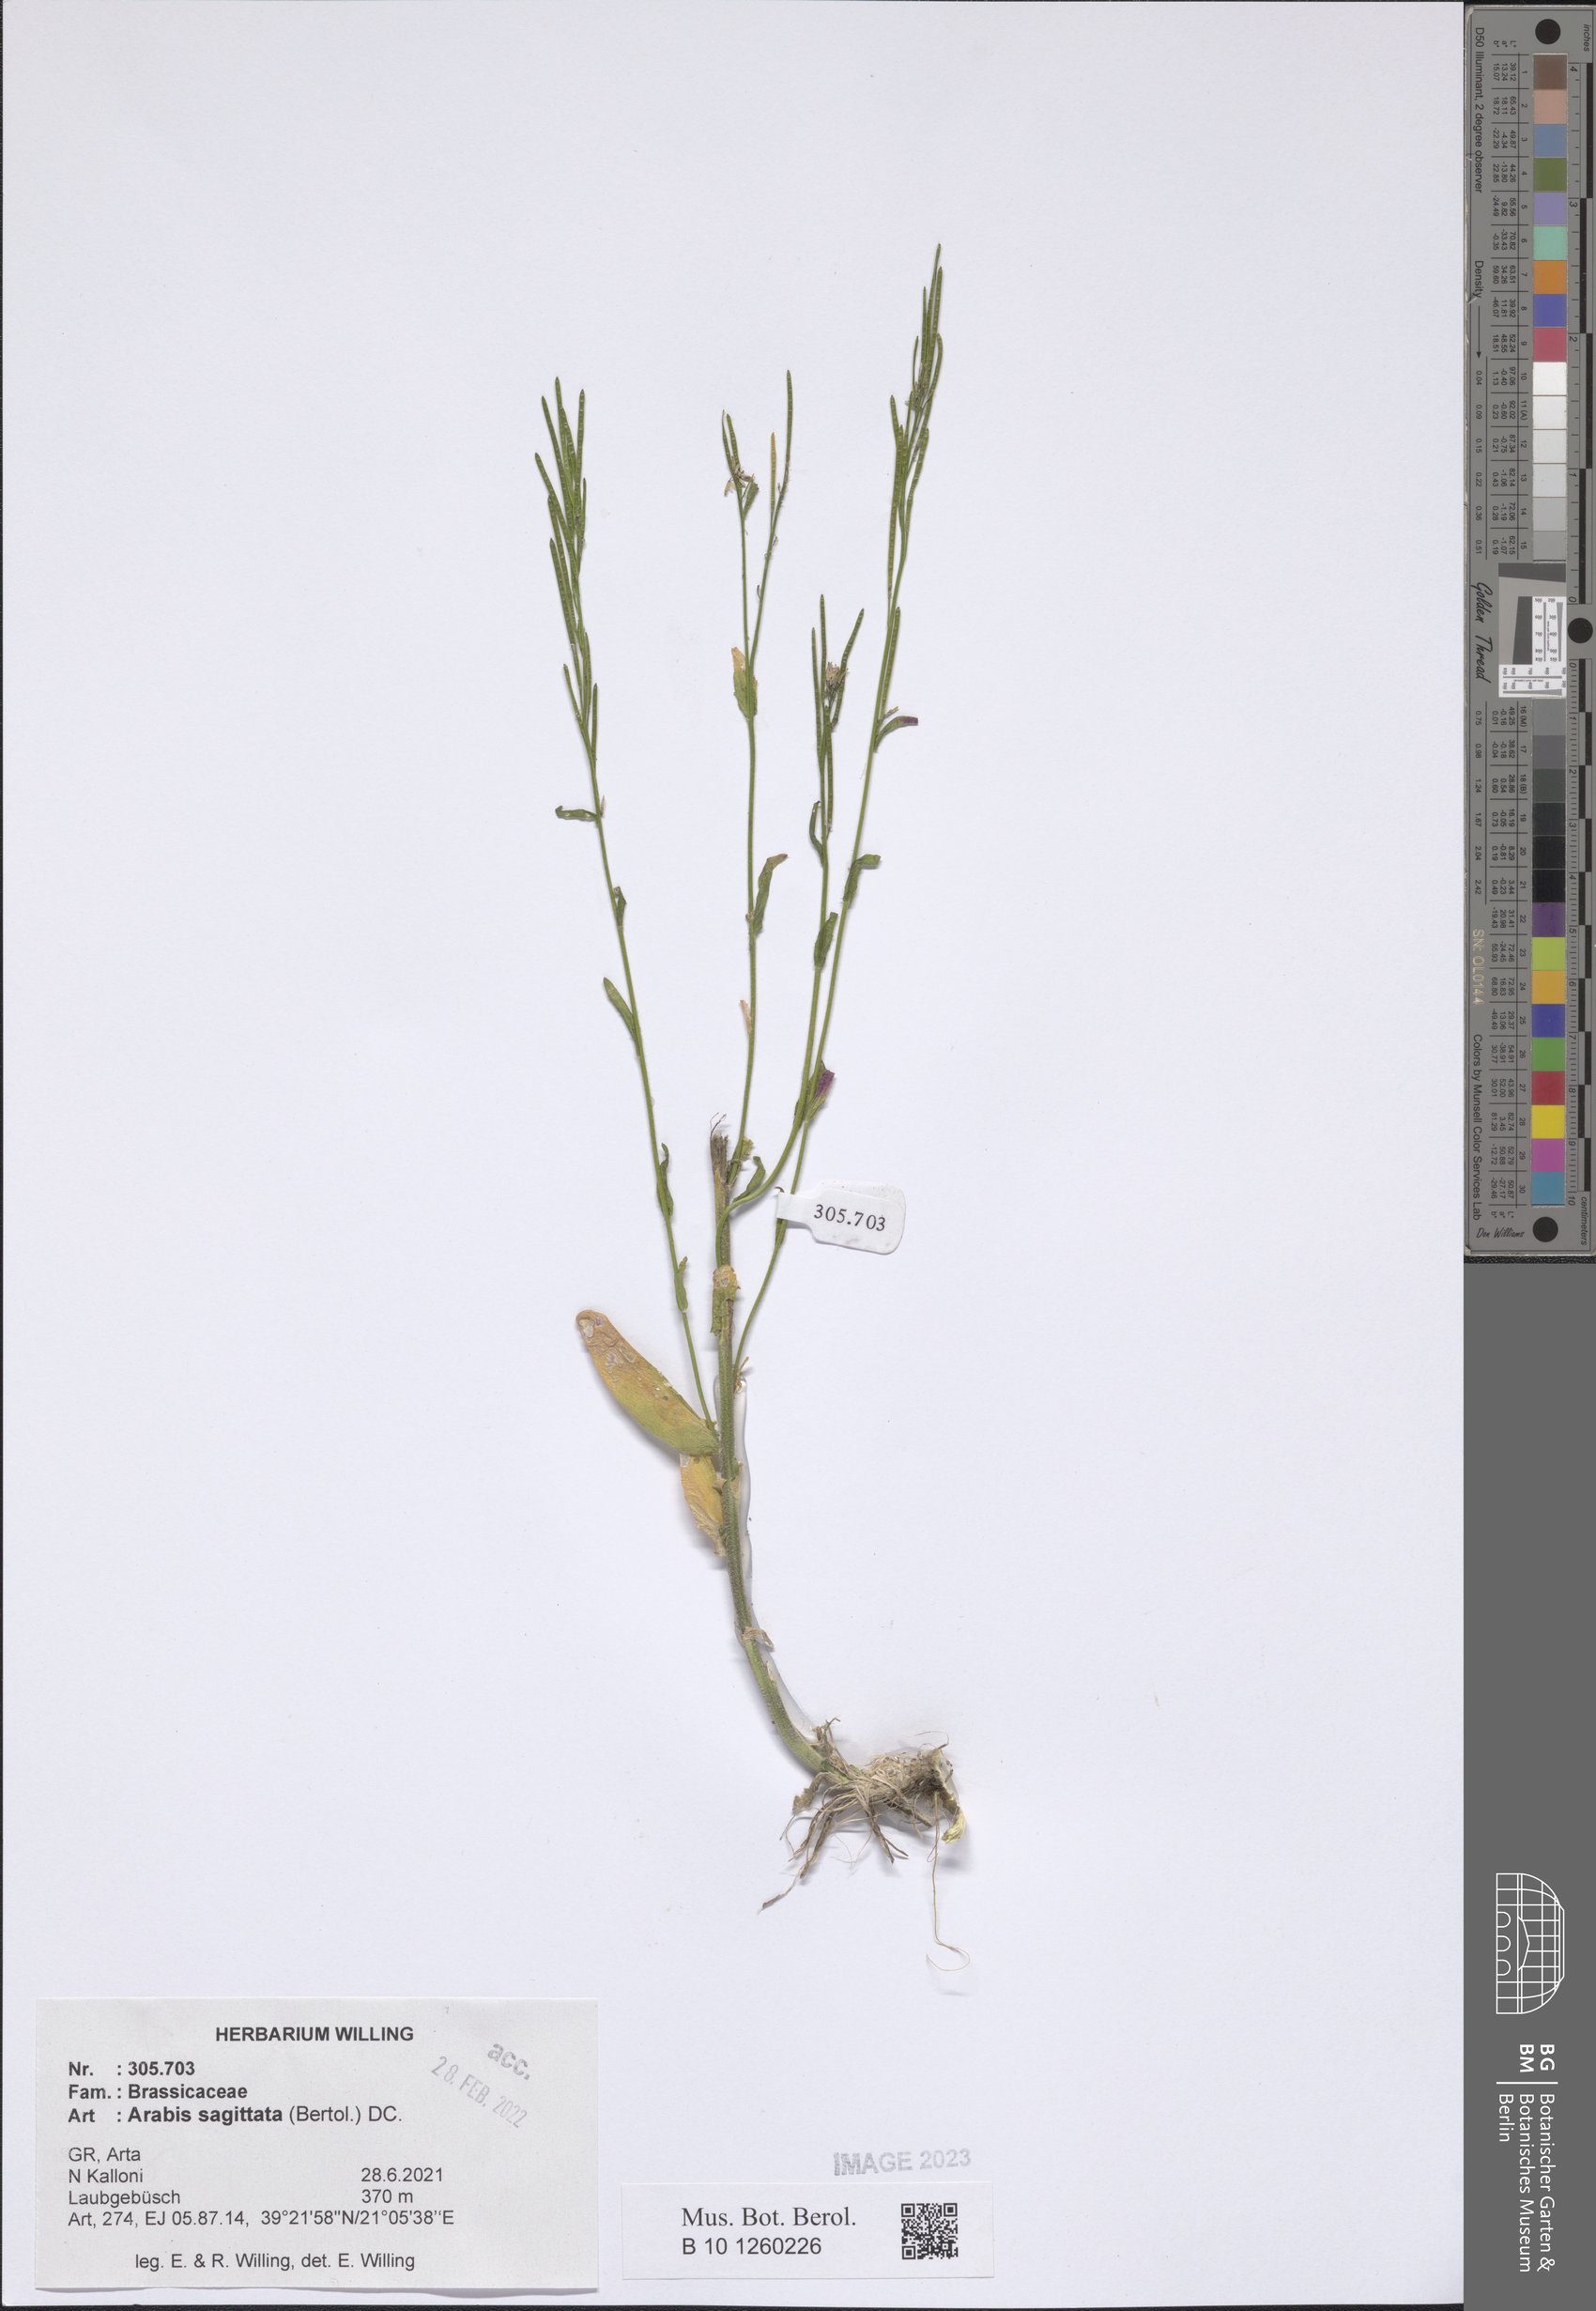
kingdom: Plantae
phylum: Tracheophyta
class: Magnoliopsida
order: Brassicales
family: Brassicaceae
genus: Arabis
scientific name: Arabis sagittata
